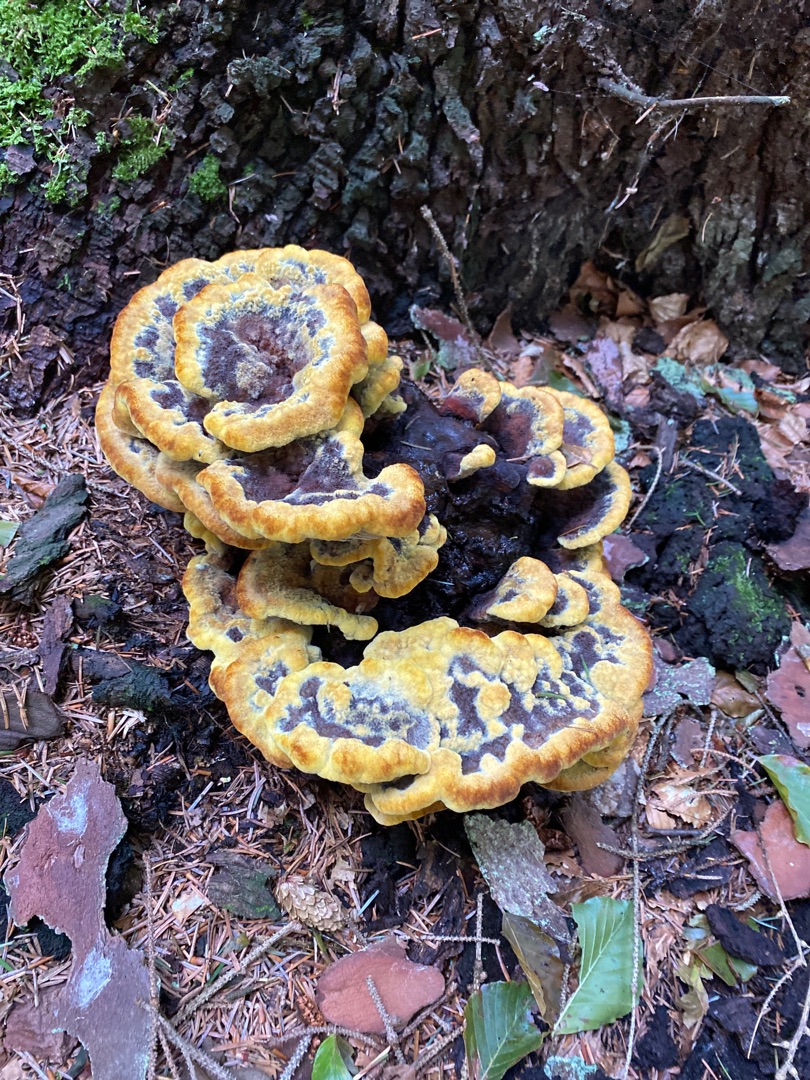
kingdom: Fungi
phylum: Basidiomycota
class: Agaricomycetes
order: Polyporales
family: Laetiporaceae
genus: Phaeolus
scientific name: Phaeolus schweinitzii
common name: Brunporesvamp
